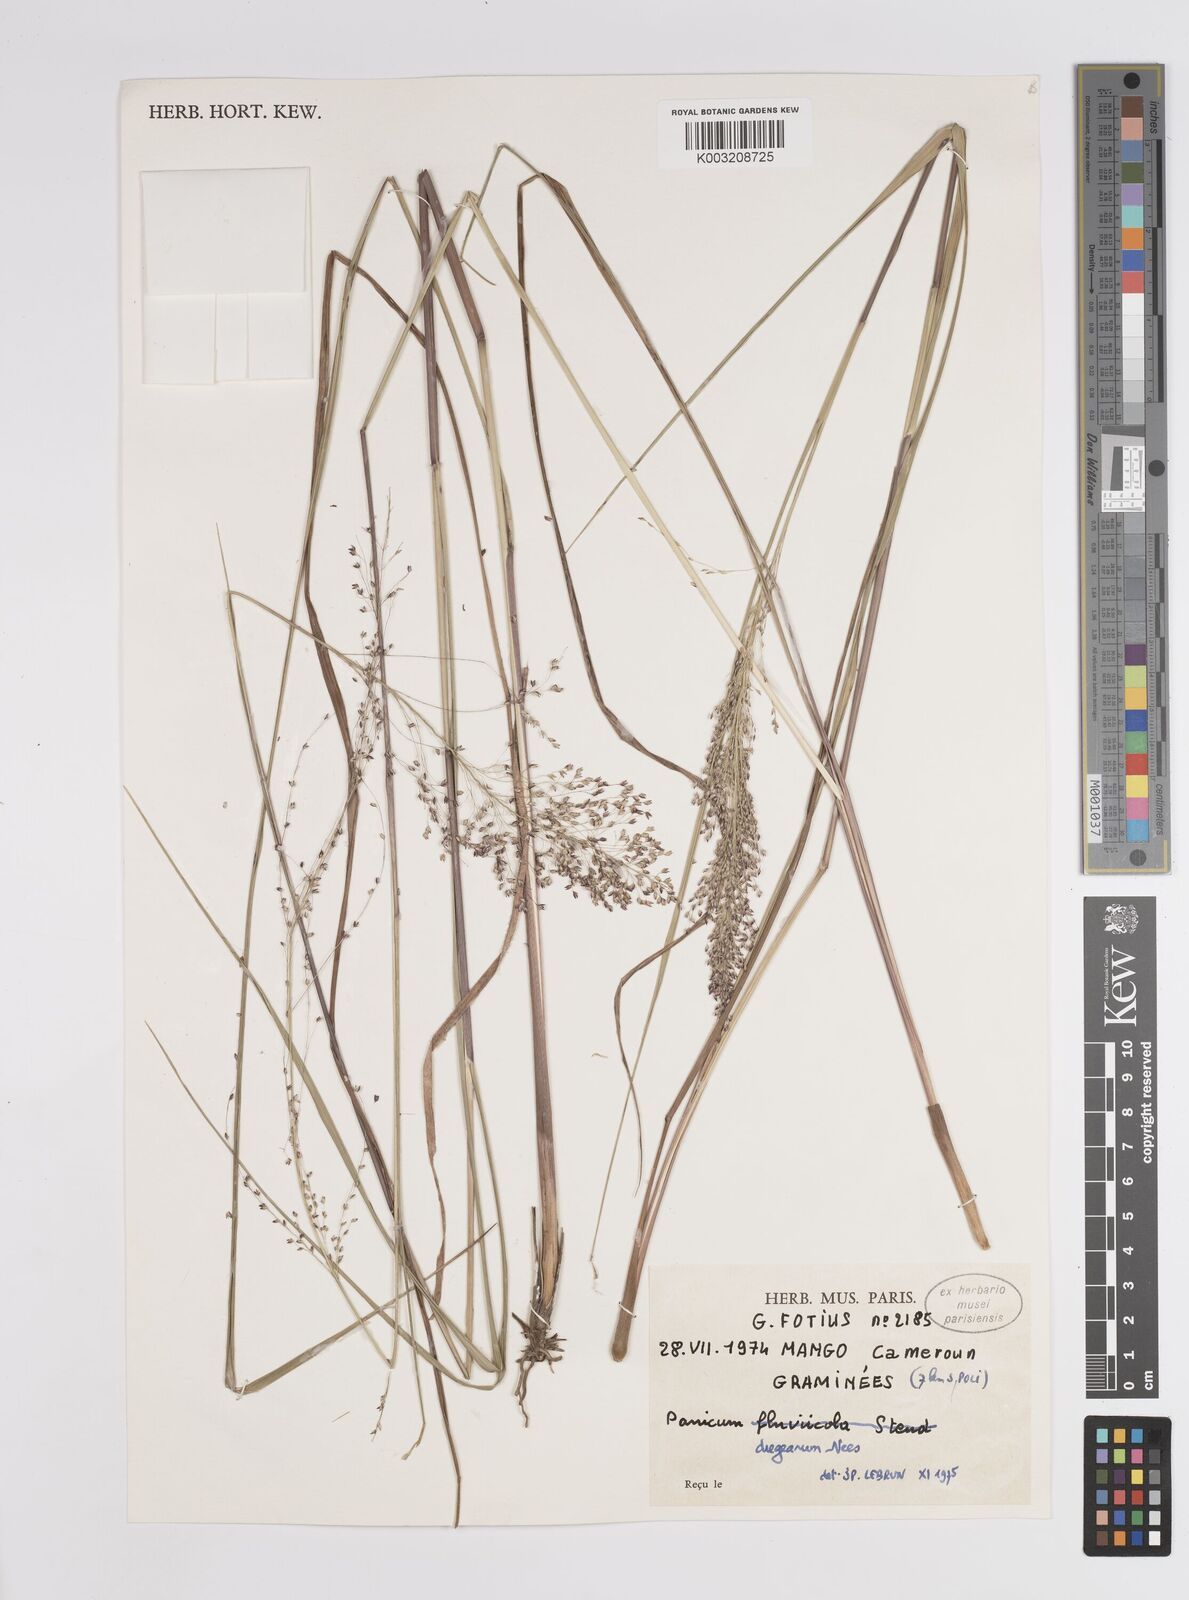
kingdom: Plantae
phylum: Tracheophyta
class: Liliopsida
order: Poales
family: Poaceae
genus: Panicum
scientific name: Panicum dregeanum
